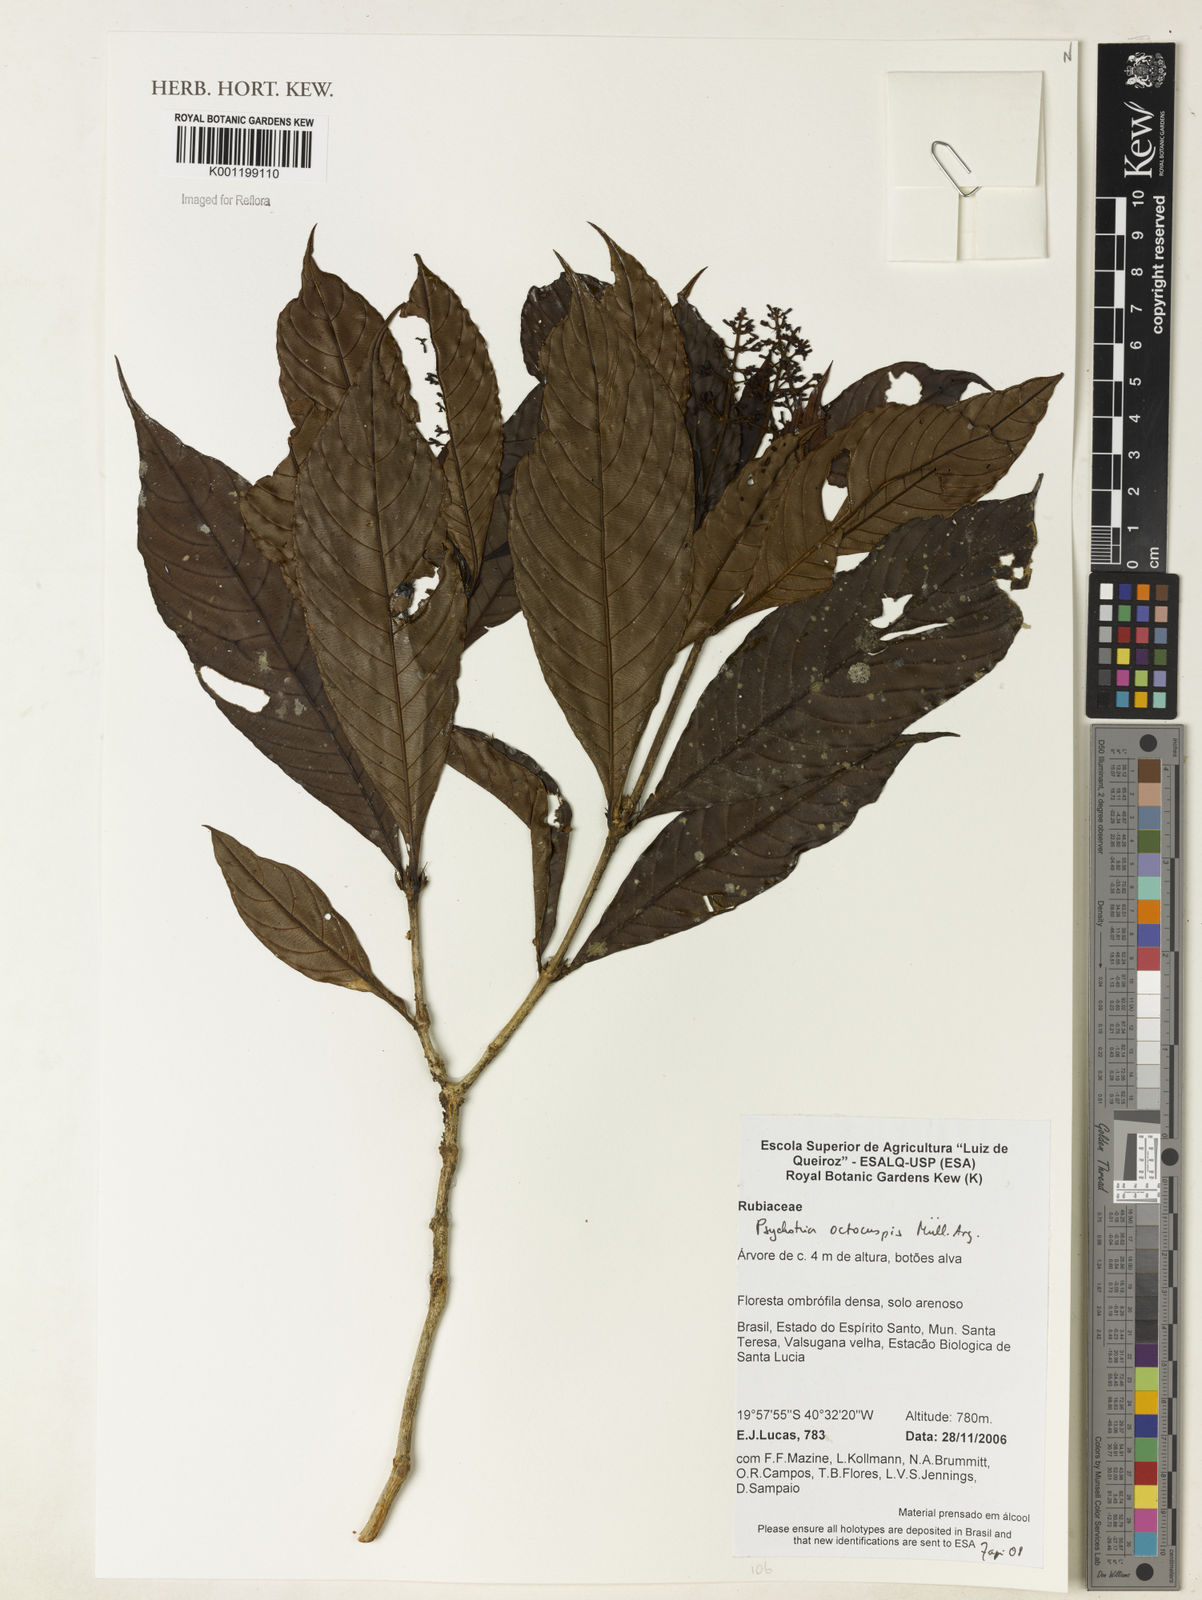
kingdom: Plantae
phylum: Tracheophyta
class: Magnoliopsida
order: Gentianales
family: Rubiaceae
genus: Psychotria
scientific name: Psychotria
